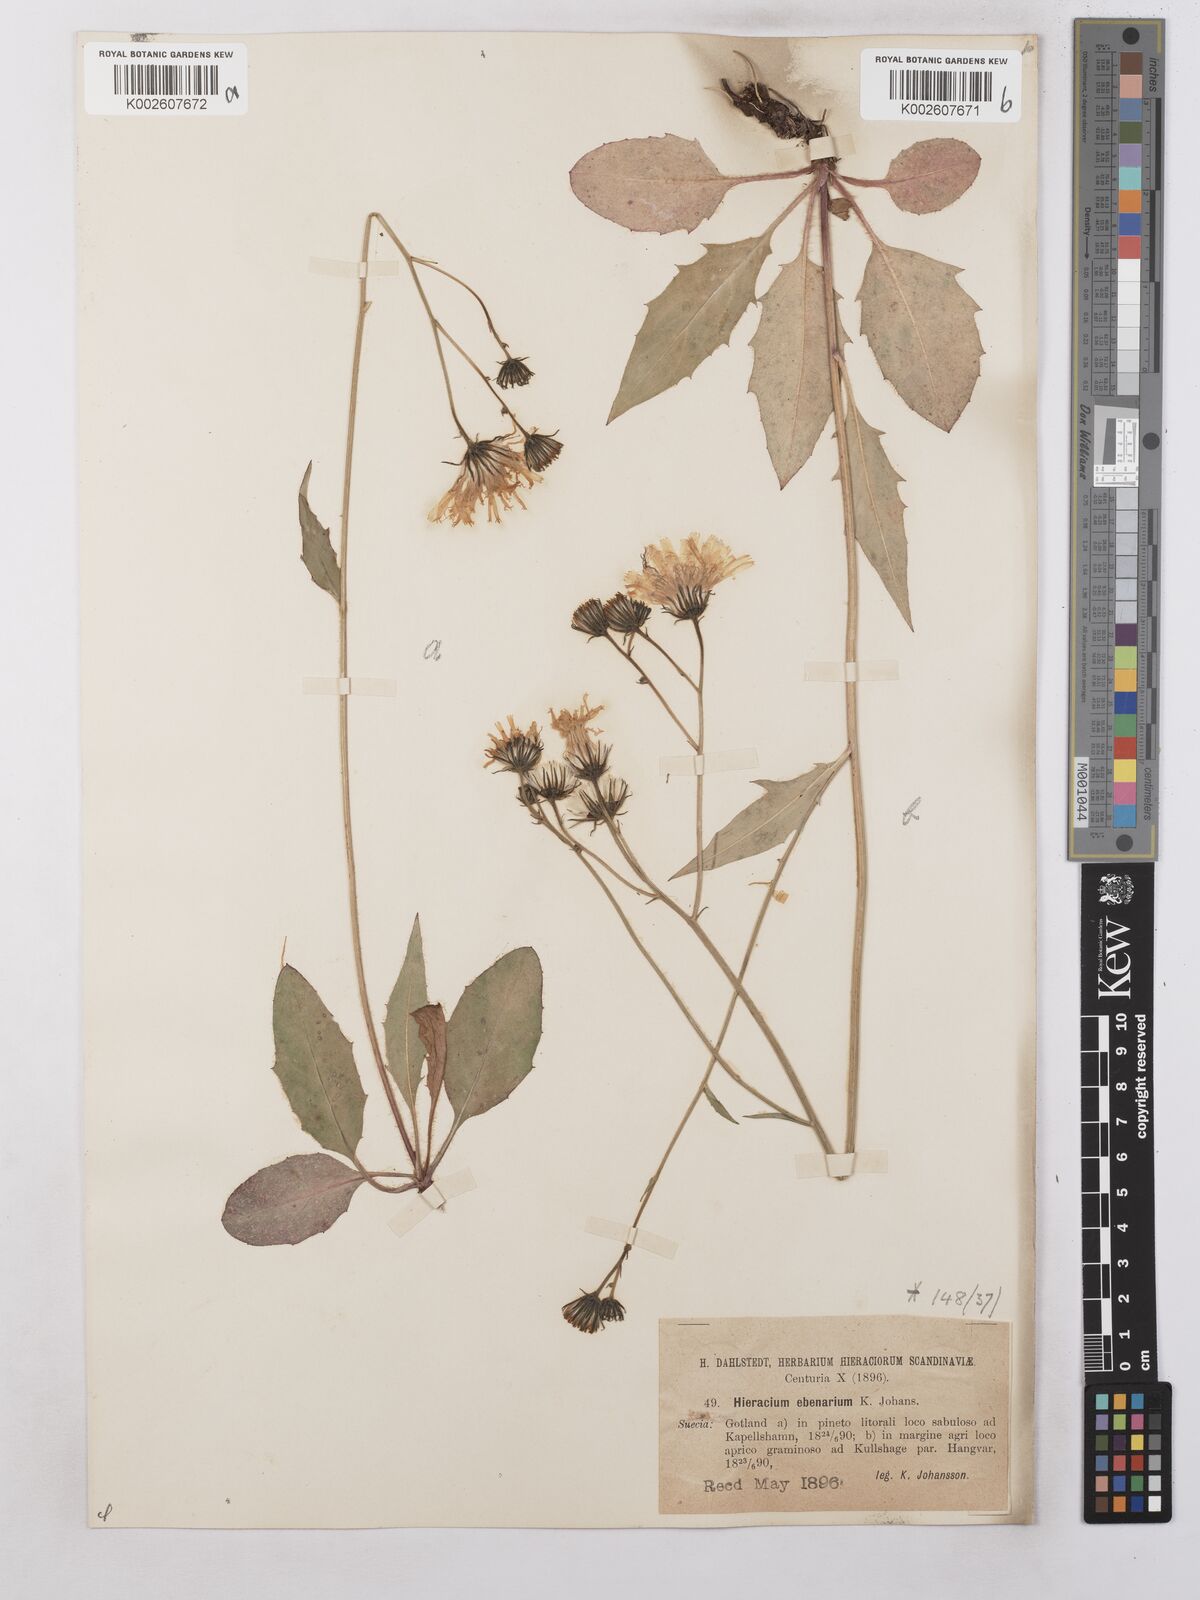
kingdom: Plantae
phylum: Tracheophyta
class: Magnoliopsida
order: Asterales
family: Asteraceae
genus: Hieracium
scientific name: Hieracium ebenarium
